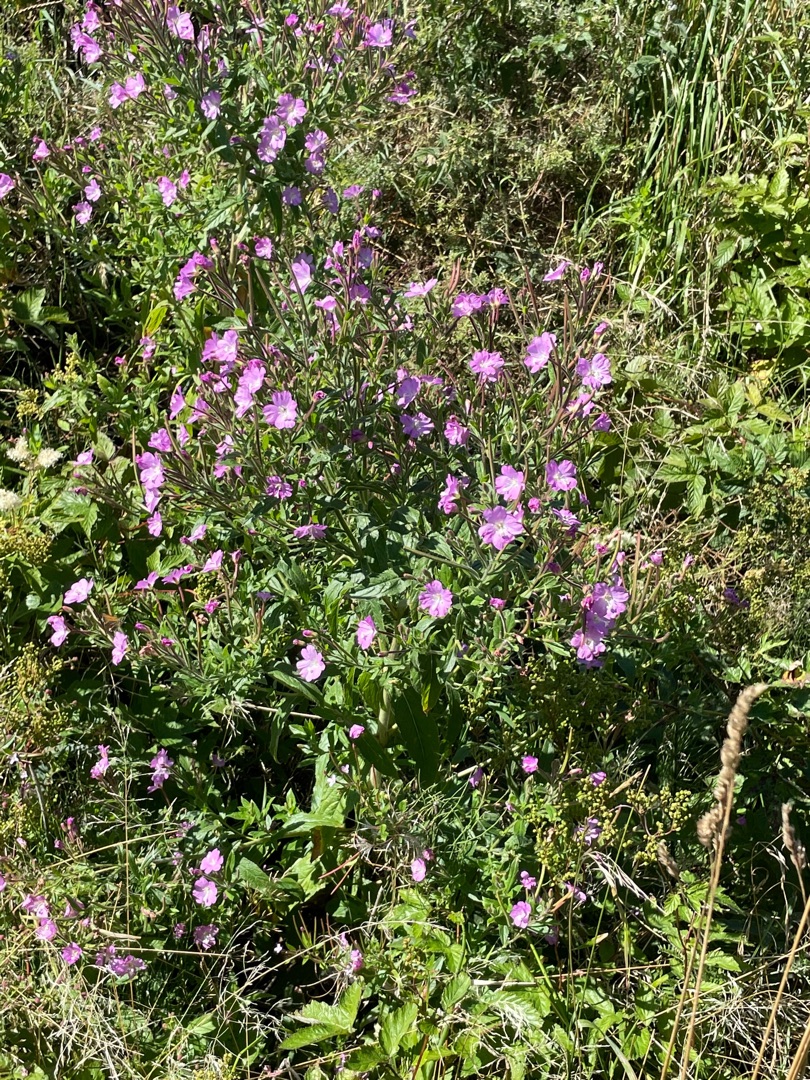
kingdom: Plantae
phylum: Tracheophyta
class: Magnoliopsida
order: Myrtales
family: Onagraceae
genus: Epilobium
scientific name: Epilobium hirsutum
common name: Lådden dueurt
